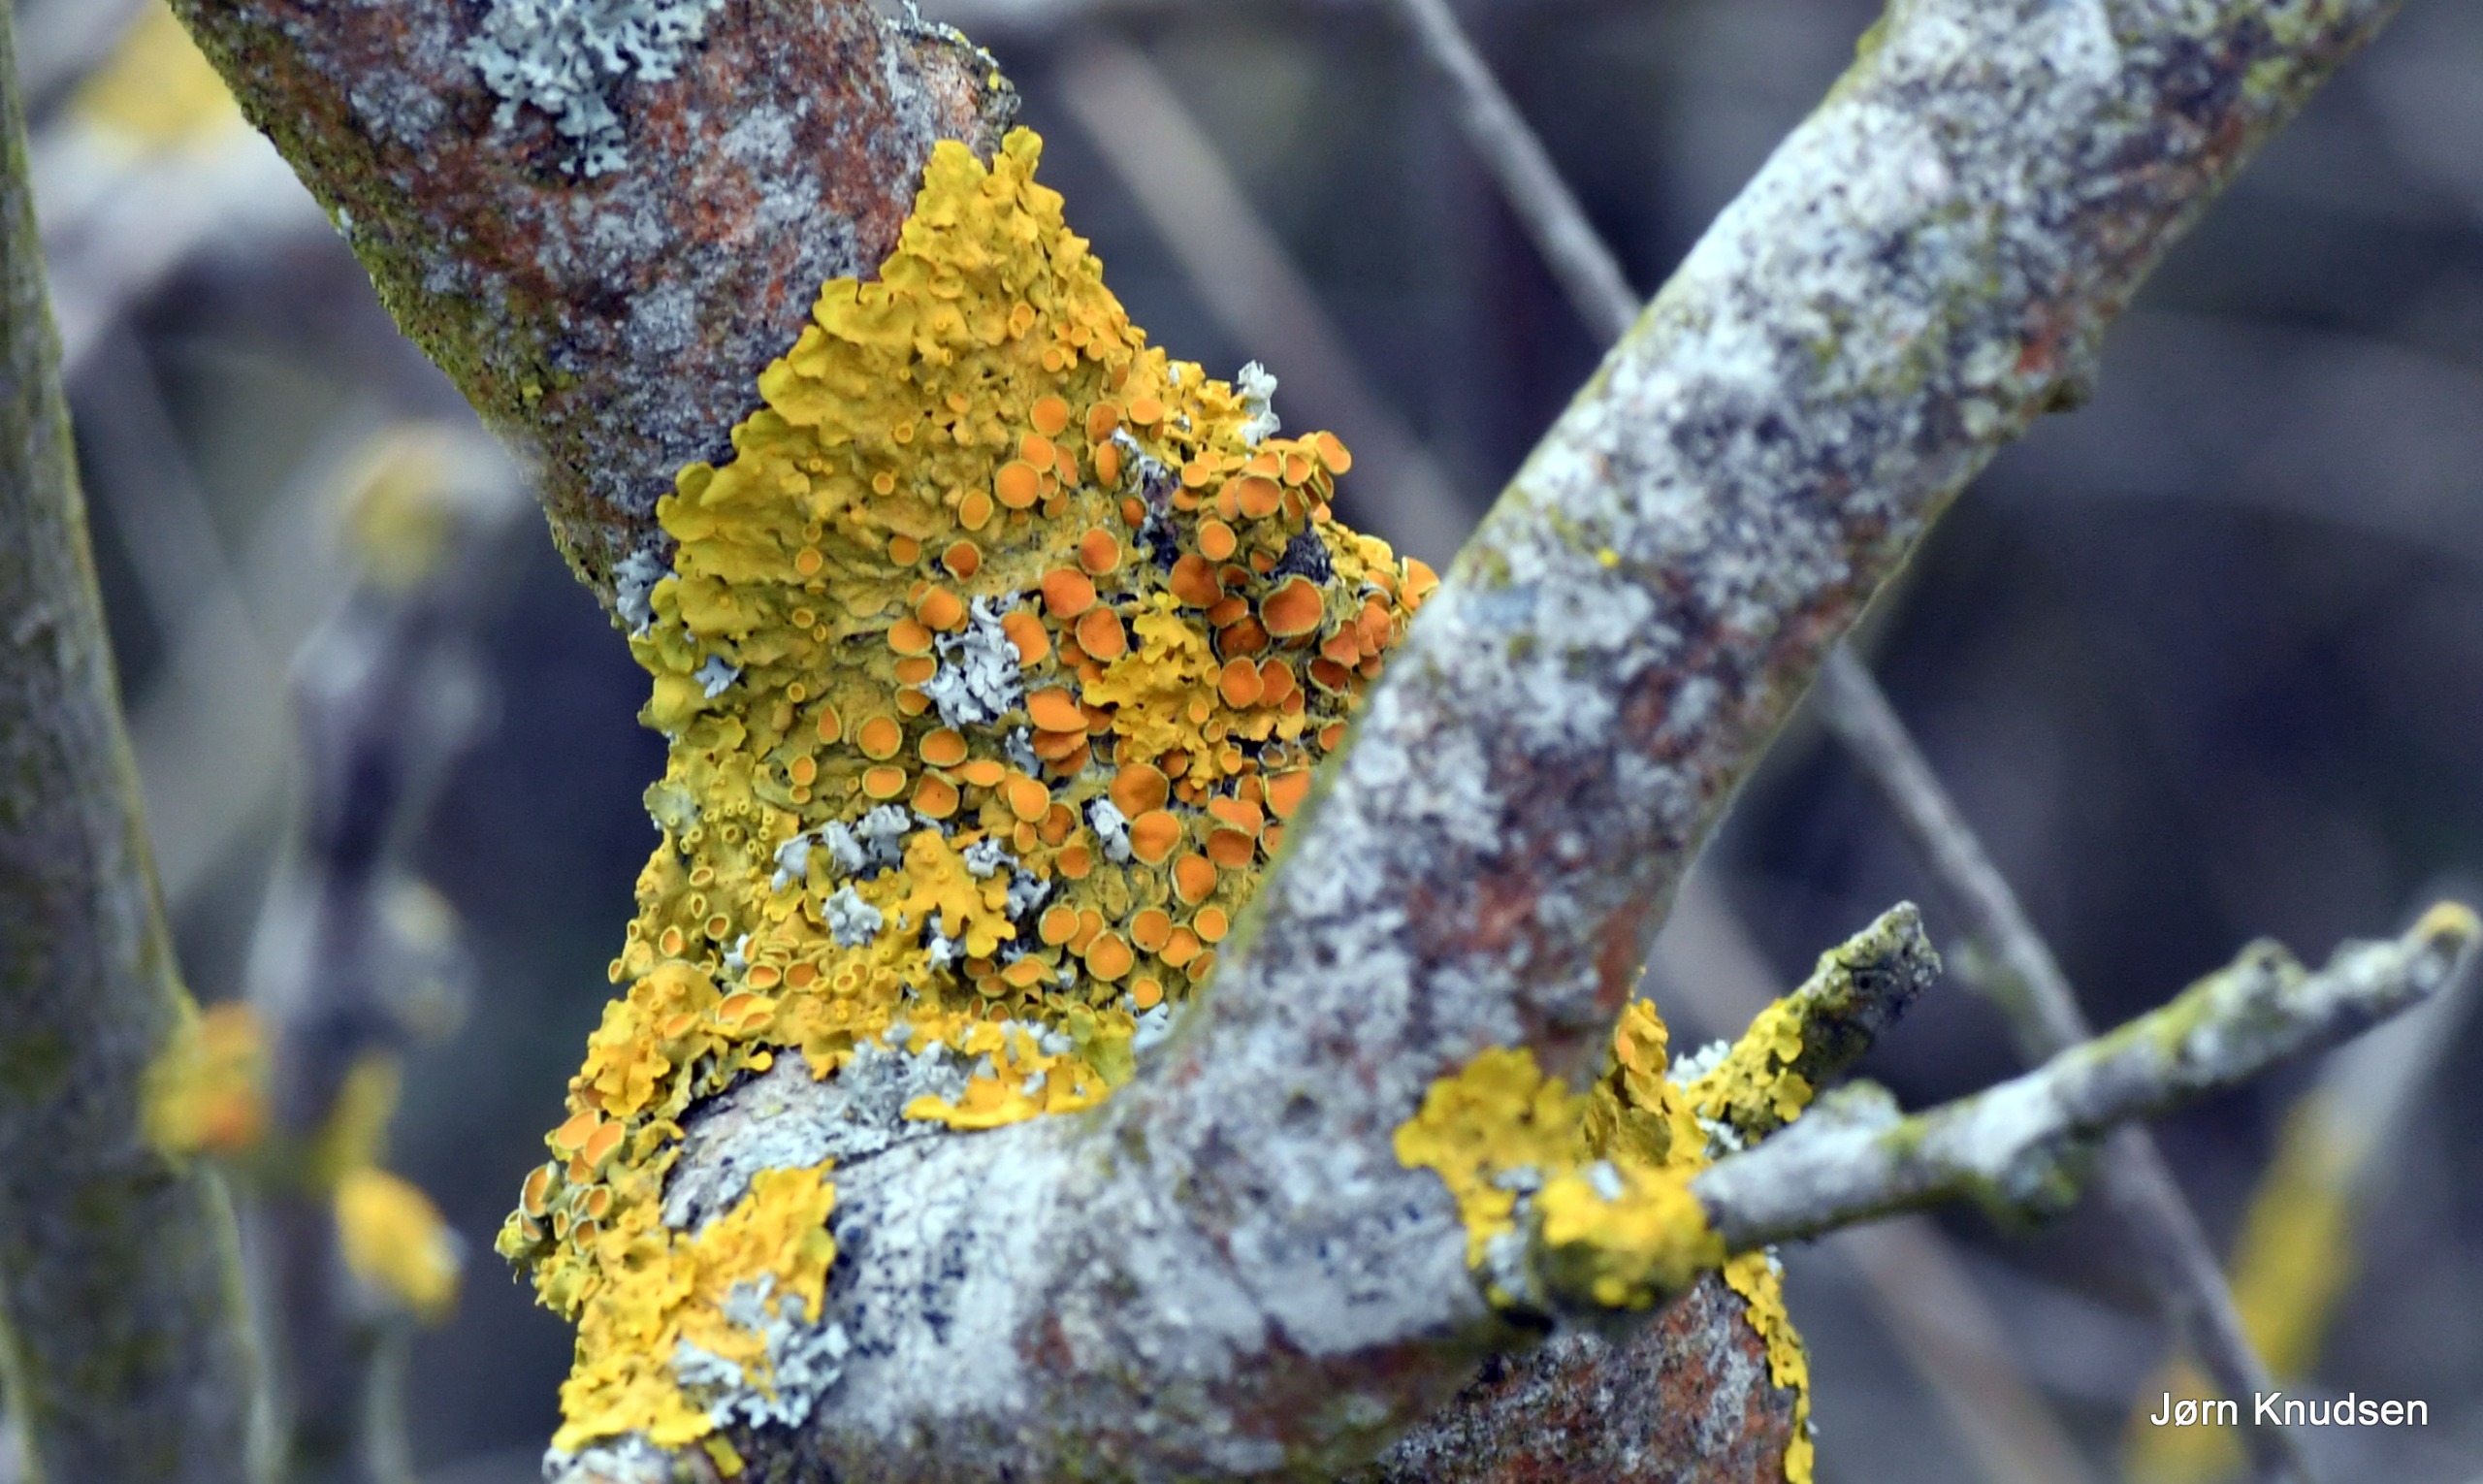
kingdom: Fungi
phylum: Ascomycota
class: Lecanoromycetes
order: Teloschistales
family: Teloschistaceae
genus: Xanthoria
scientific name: Xanthoria parietina
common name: Almindelig væggelav
